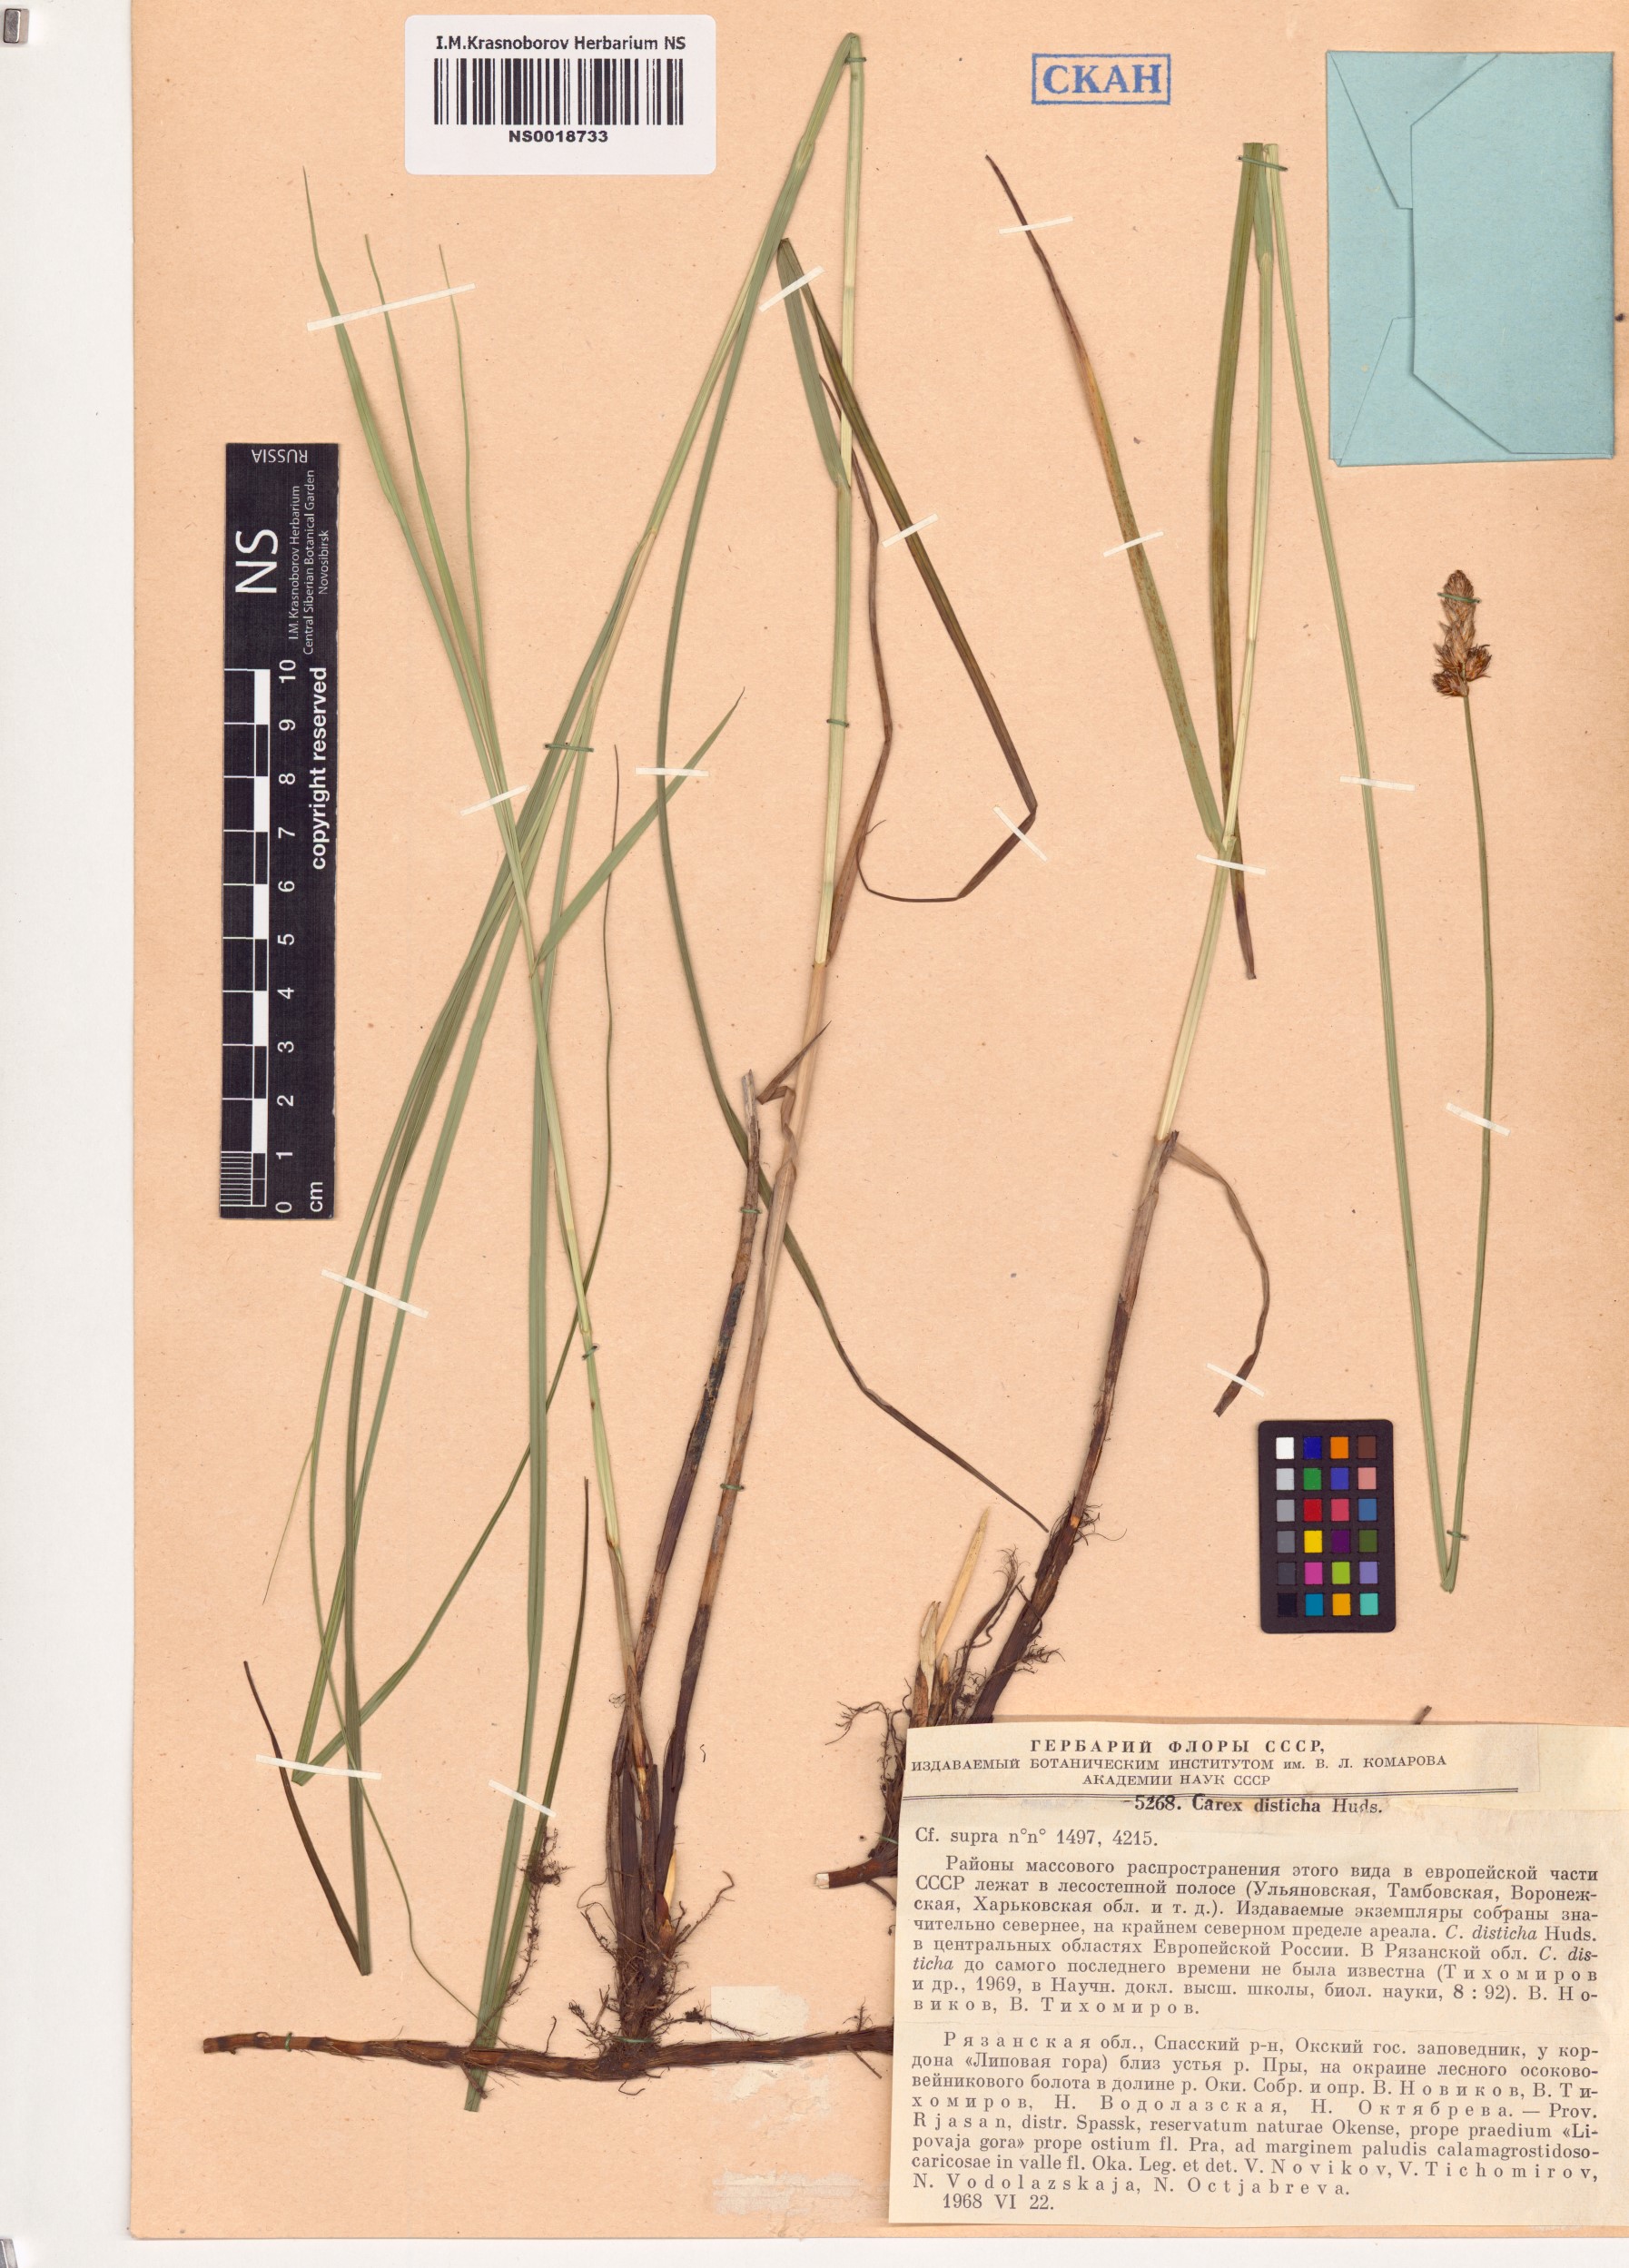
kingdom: Plantae
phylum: Tracheophyta
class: Liliopsida
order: Poales
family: Cyperaceae
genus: Carex
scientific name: Carex disticha
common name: Brown sedge
